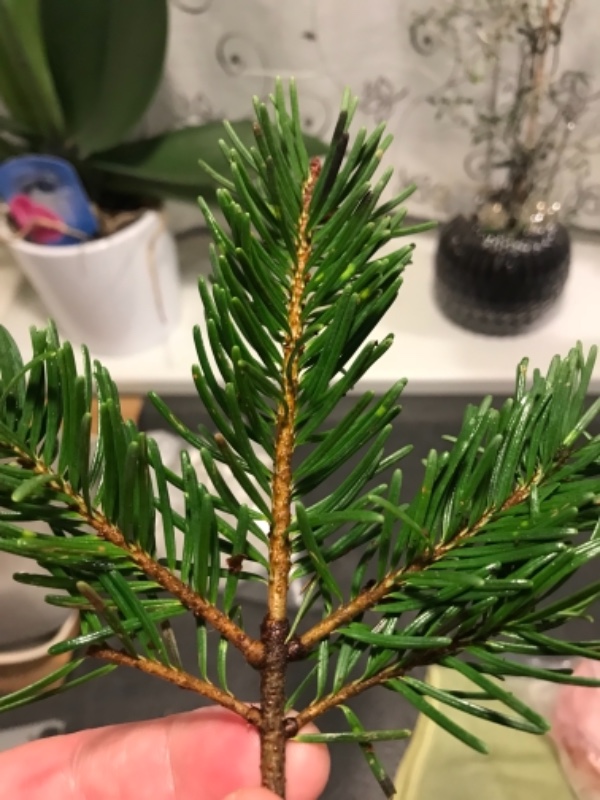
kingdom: Fungi
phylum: Ascomycota
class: Pezizomycetes
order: Pezizales
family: Sarcoscyphaceae
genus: Pithya
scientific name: Pithya vulgaris
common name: stor dukatbæger
